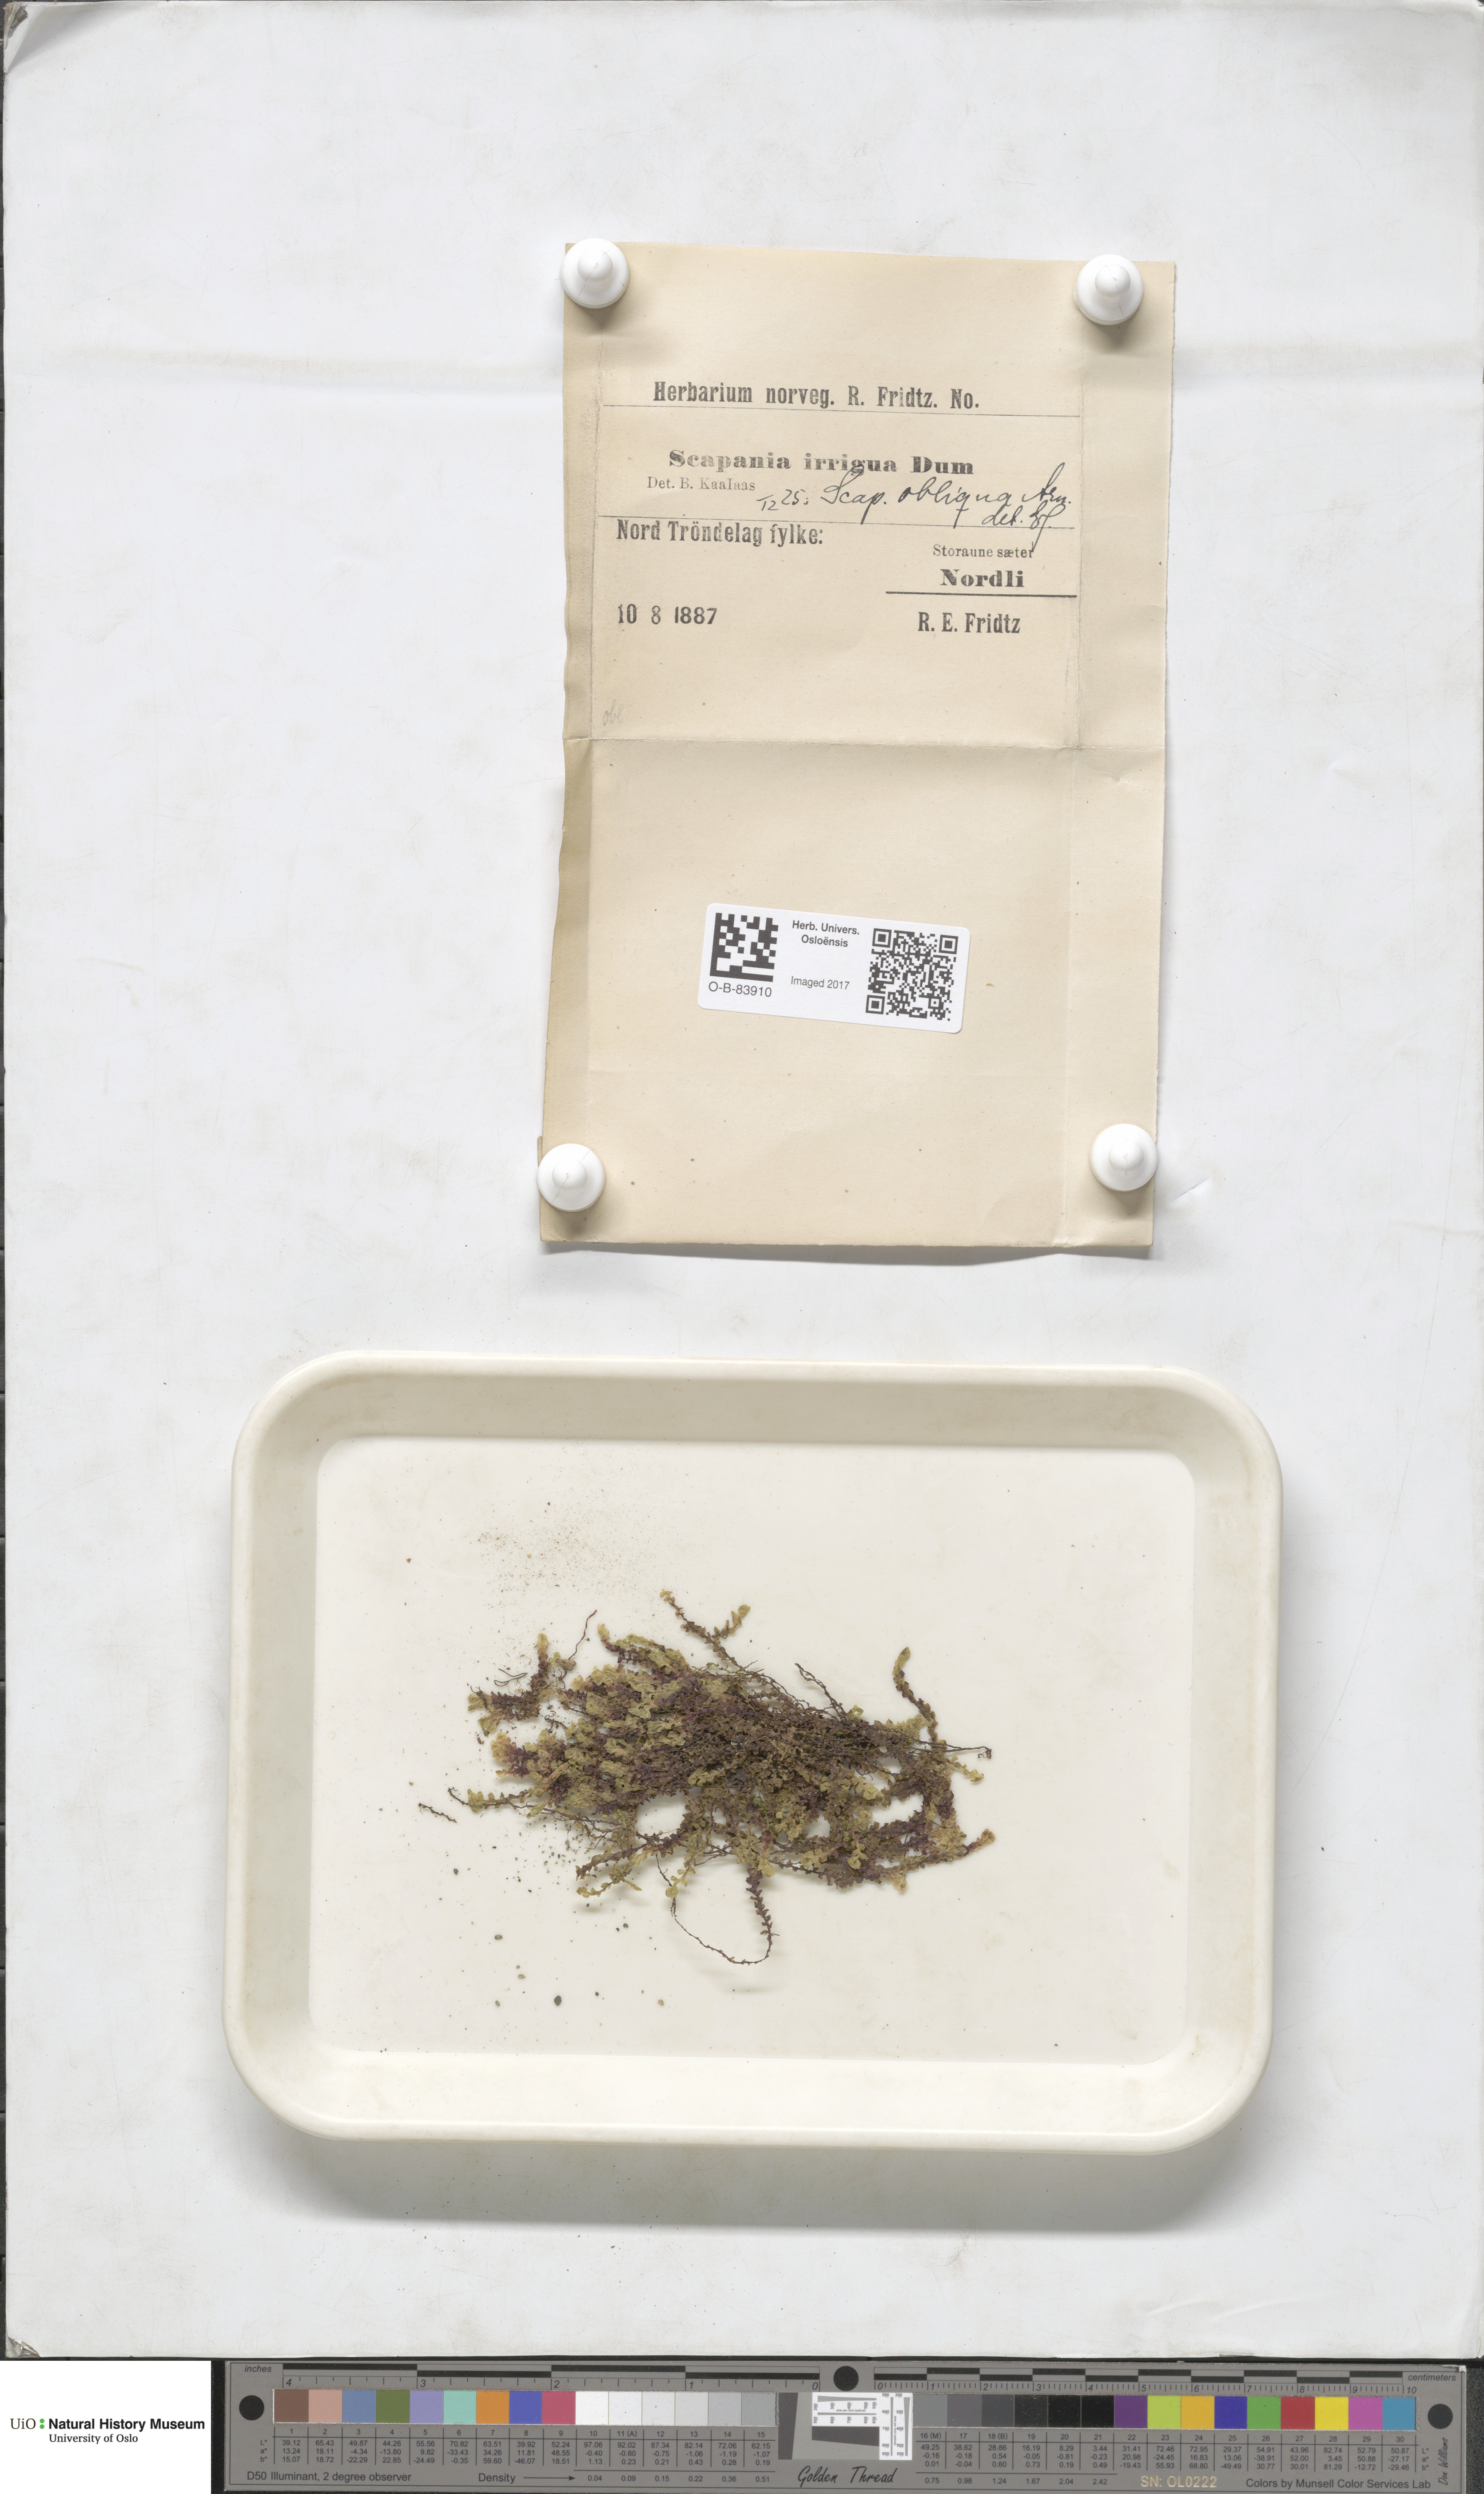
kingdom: Plantae
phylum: Marchantiophyta
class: Jungermanniopsida
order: Jungermanniales
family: Scapaniaceae
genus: Scapania
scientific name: Scapania uliginosa
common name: Marsh earwort
